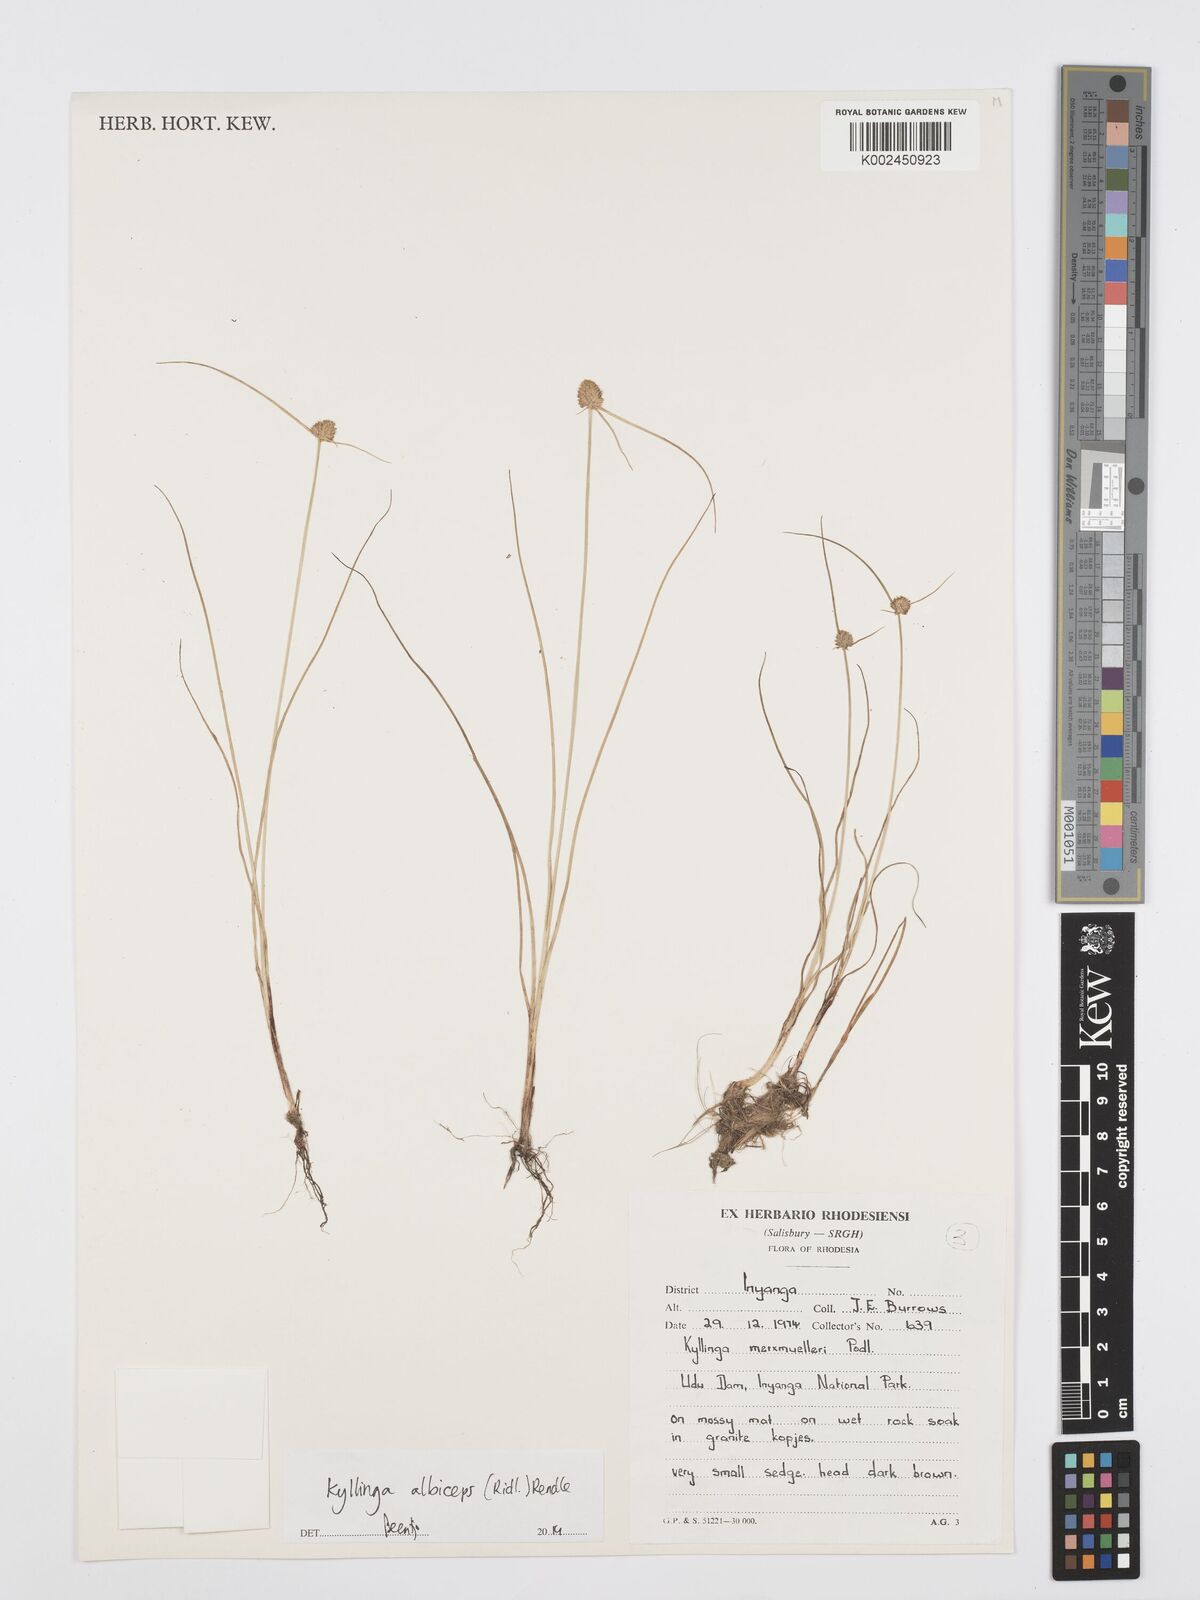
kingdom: Plantae
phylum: Tracheophyta
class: Liliopsida
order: Poales
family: Cyperaceae
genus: Cyperus
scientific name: Cyperus albiceps
